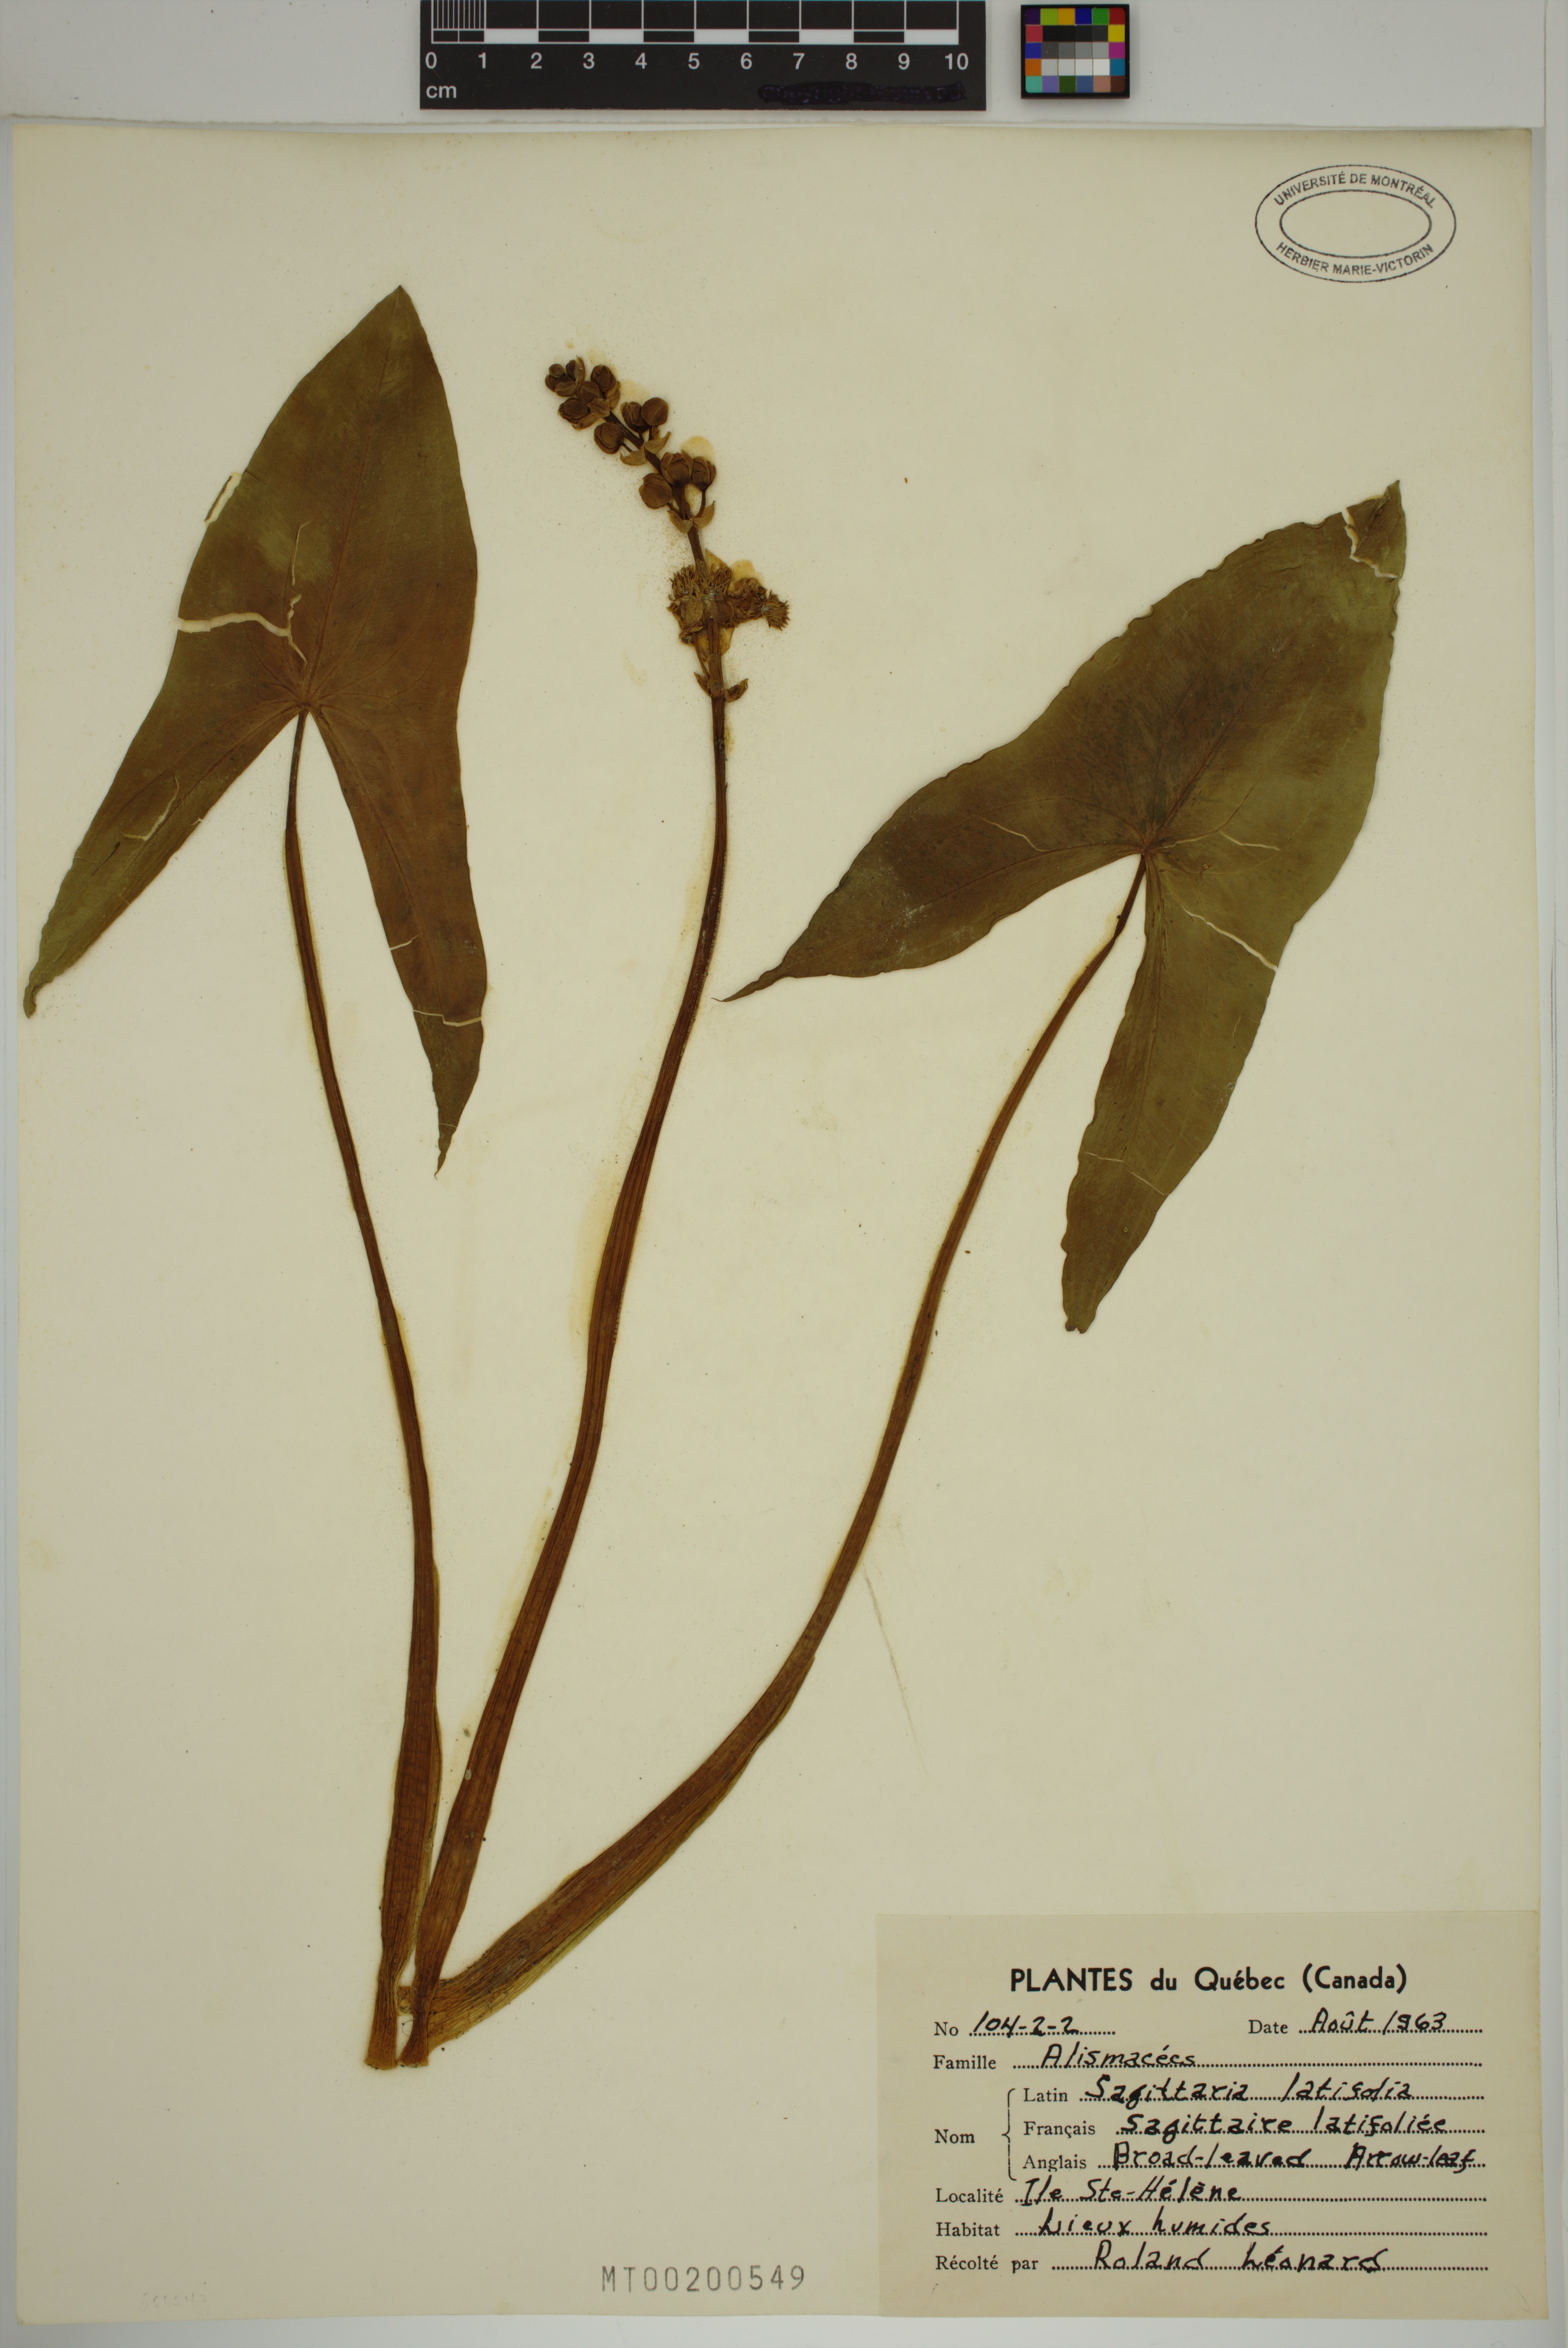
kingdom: Plantae
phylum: Tracheophyta
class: Liliopsida
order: Alismatales
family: Alismataceae
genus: Sagittaria
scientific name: Sagittaria latifolia
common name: Duck-potato
